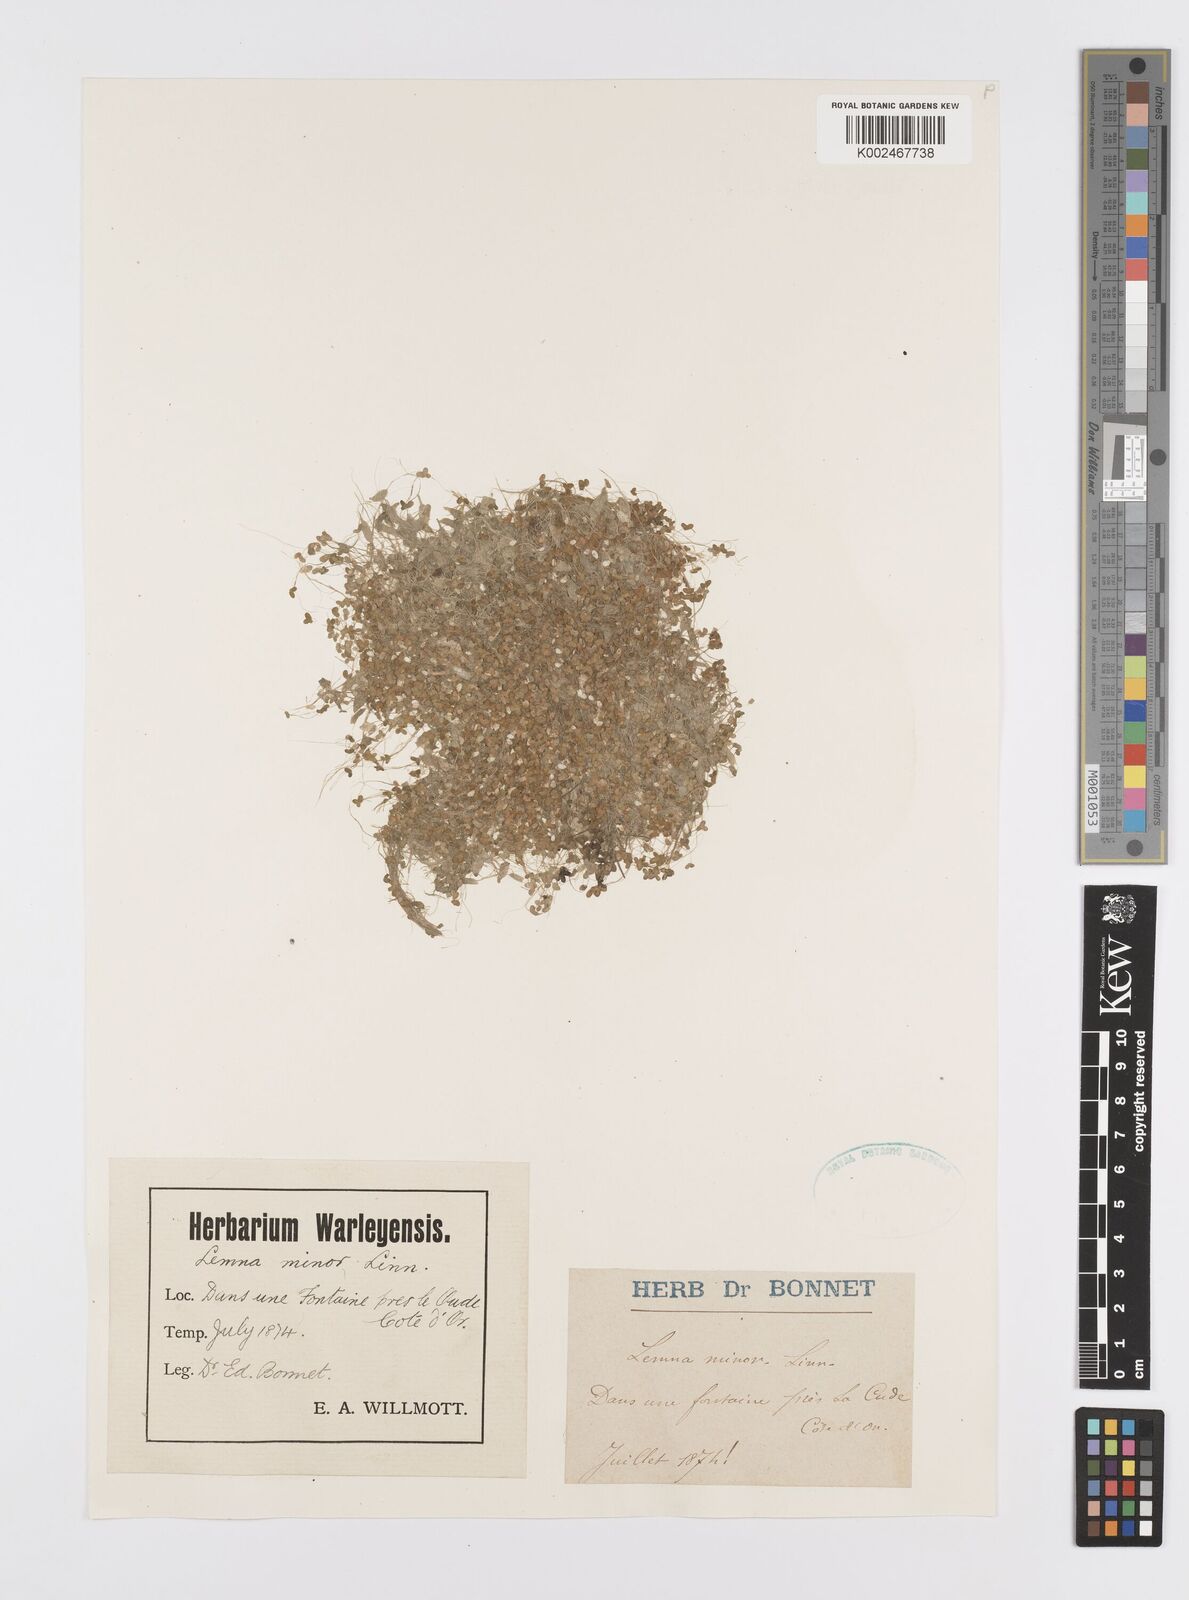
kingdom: Plantae
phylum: Tracheophyta
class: Liliopsida
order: Alismatales
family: Araceae
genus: Lemna
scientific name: Lemna minor
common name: Common duckweed
